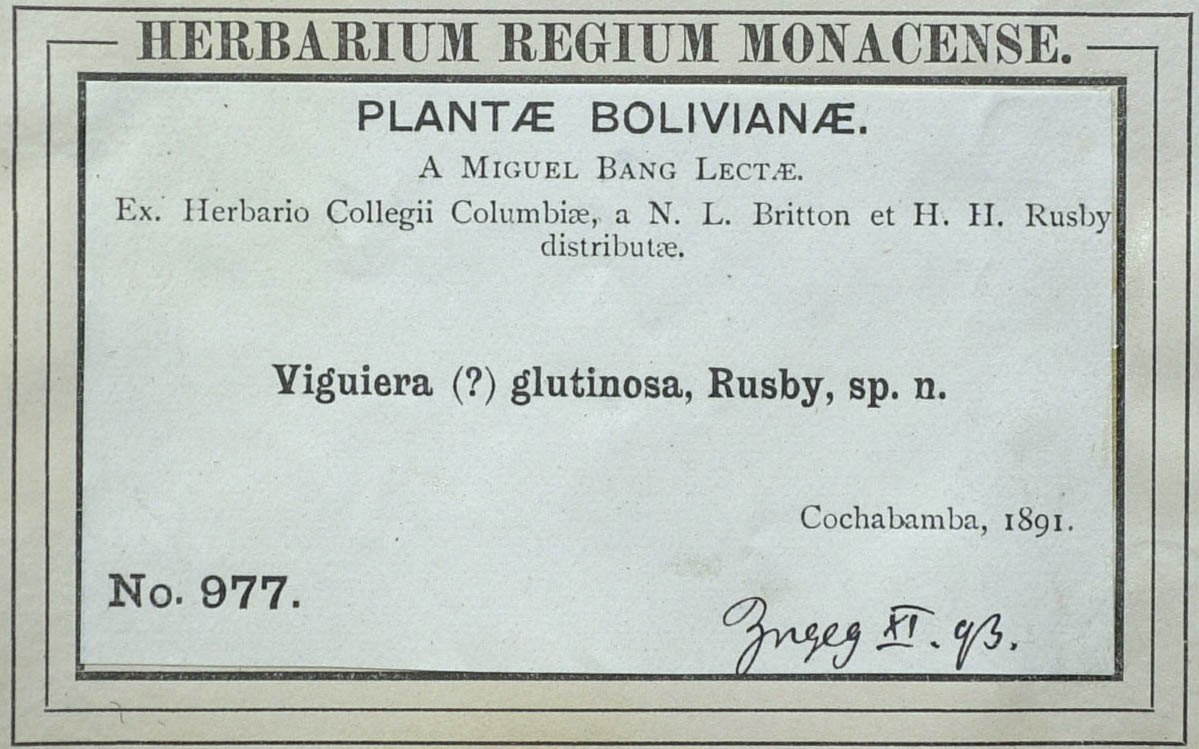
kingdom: Plantae
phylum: Tracheophyta
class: Magnoliopsida
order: Asterales
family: Asteraceae
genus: Flourensia
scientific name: Flourensia heterolepis
